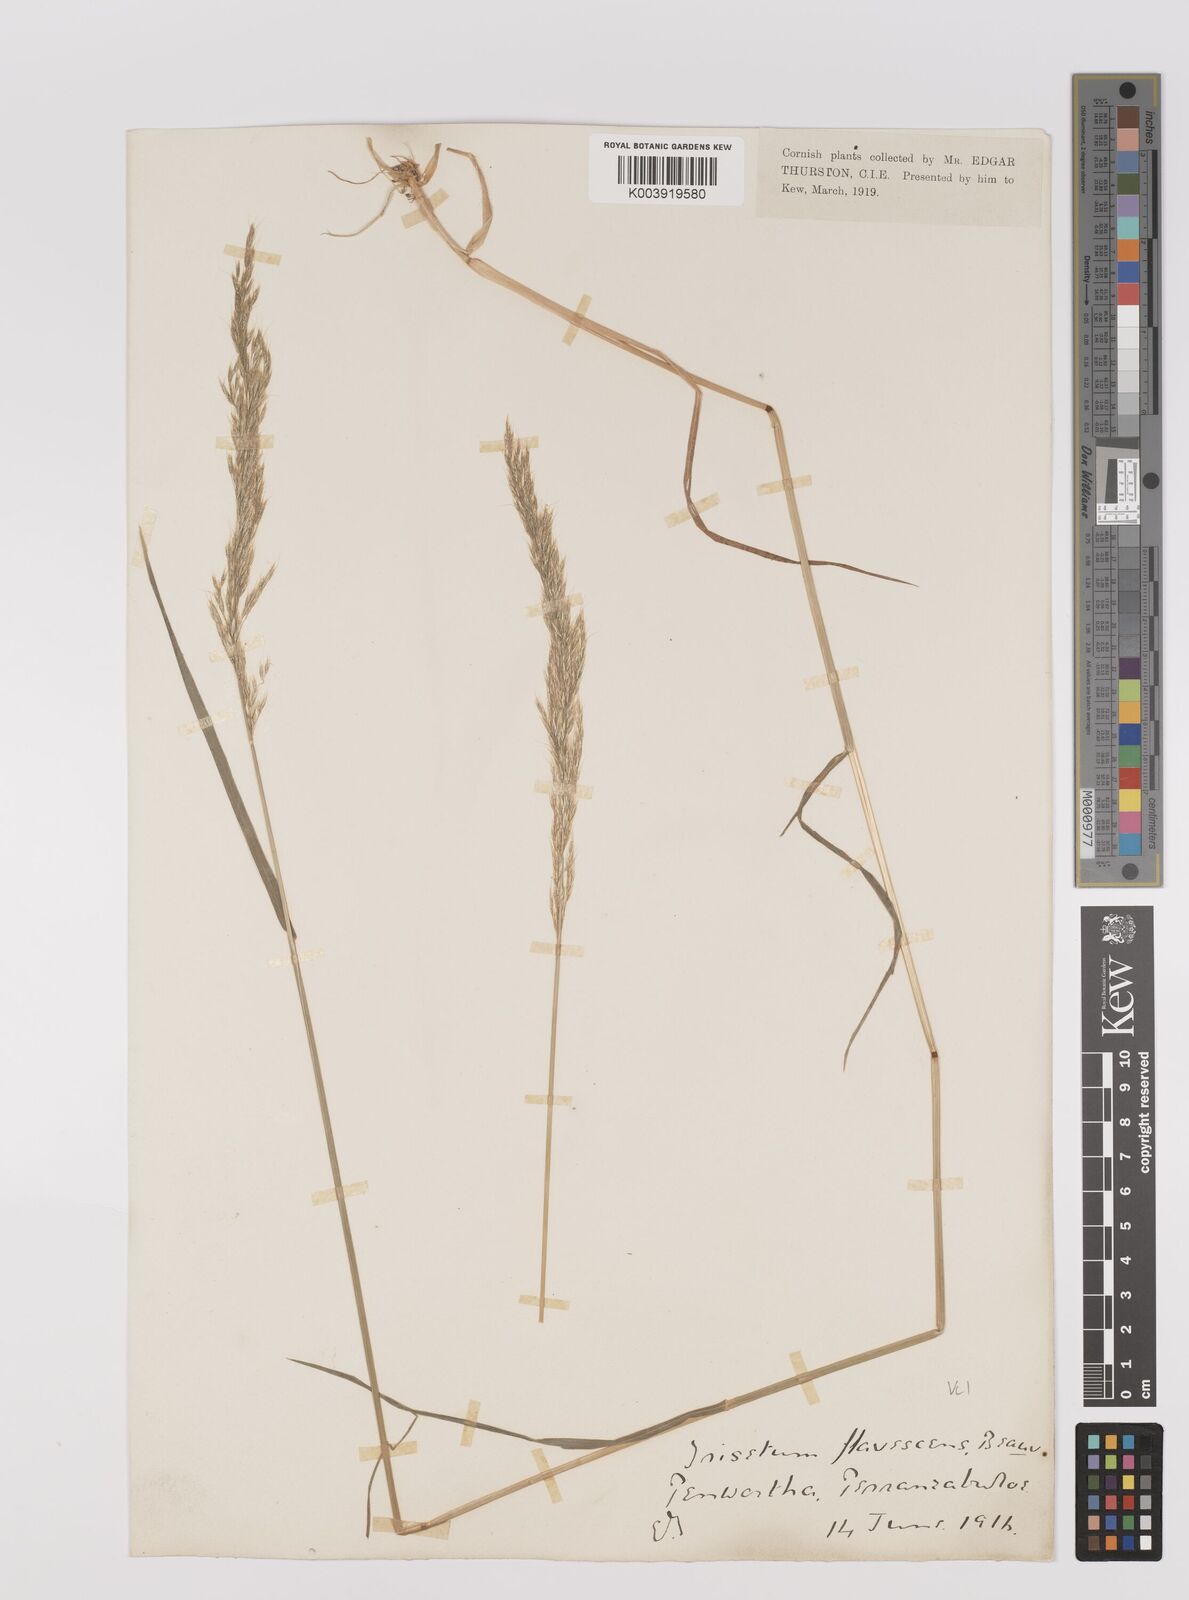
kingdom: Plantae
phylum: Tracheophyta
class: Liliopsida
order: Poales
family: Poaceae
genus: Trisetum
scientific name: Trisetum flavescens
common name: Yellow oat-grass
